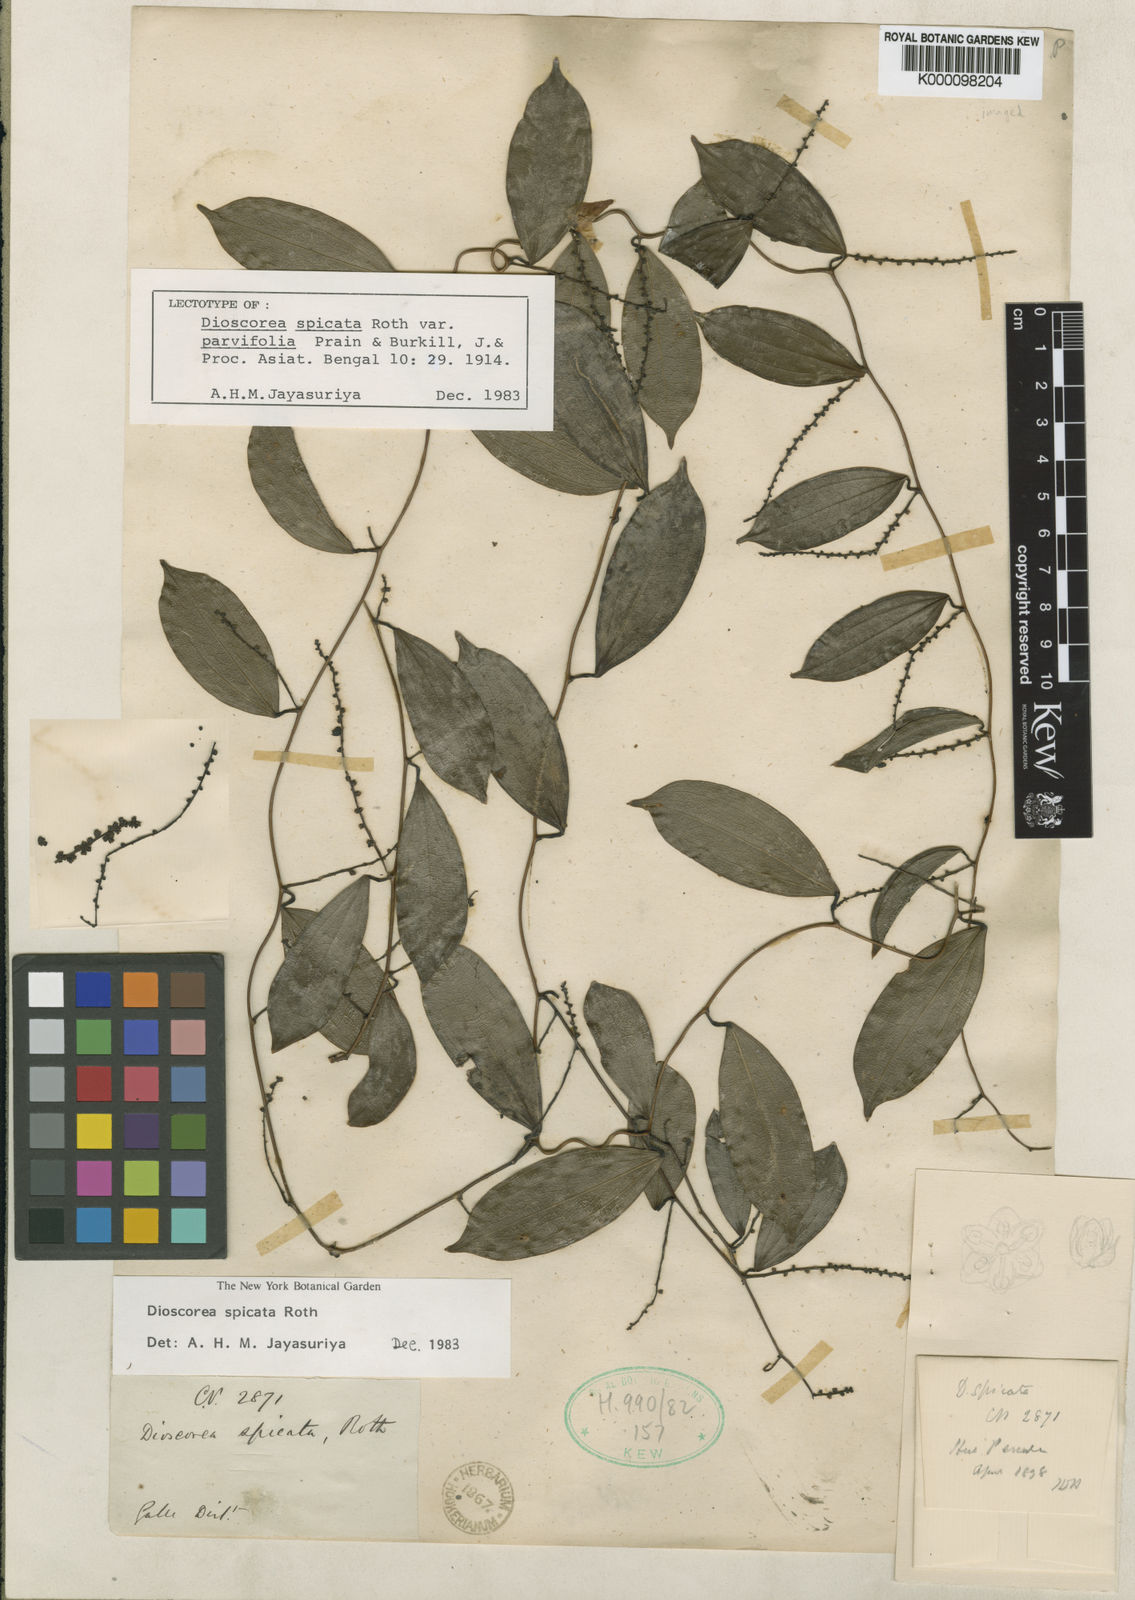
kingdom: Plantae
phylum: Tracheophyta
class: Liliopsida
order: Dioscoreales
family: Dioscoreaceae
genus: Dioscorea
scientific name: Dioscorea spicata
